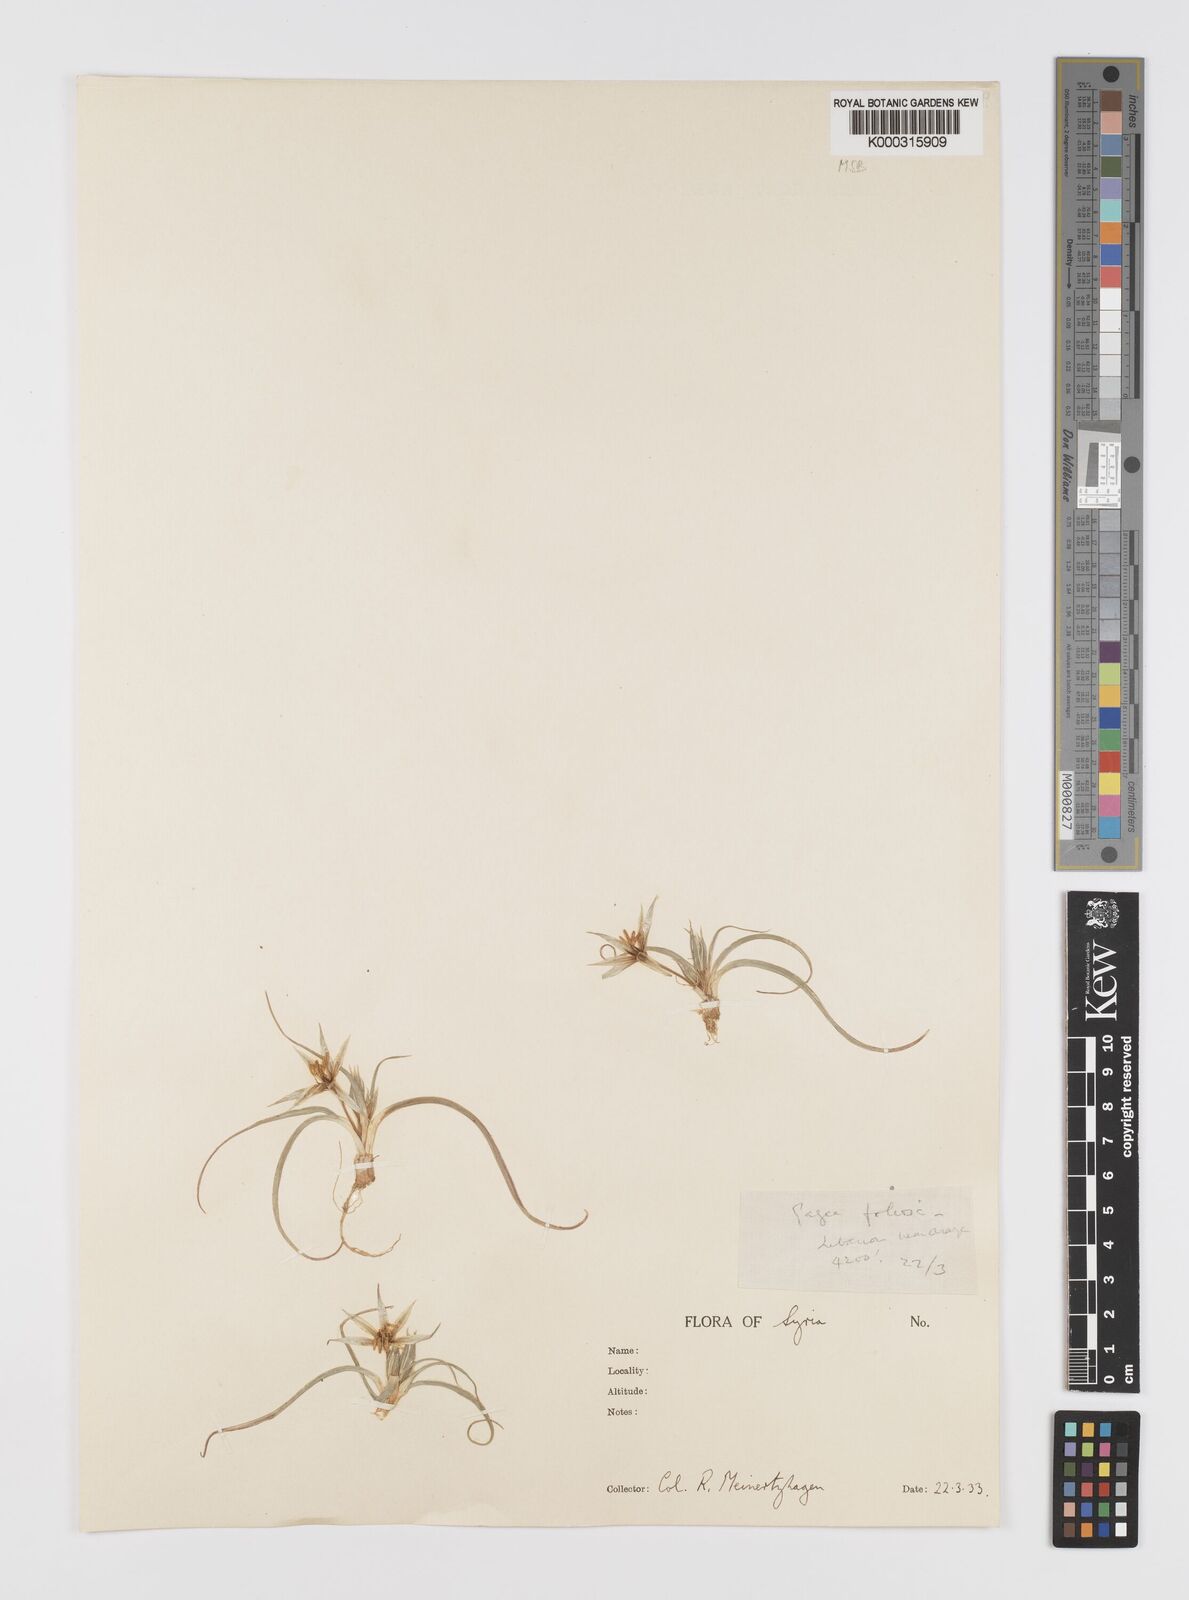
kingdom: Plantae
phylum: Tracheophyta
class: Liliopsida
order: Liliales
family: Liliaceae
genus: Gagea
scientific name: Gagea dayana
